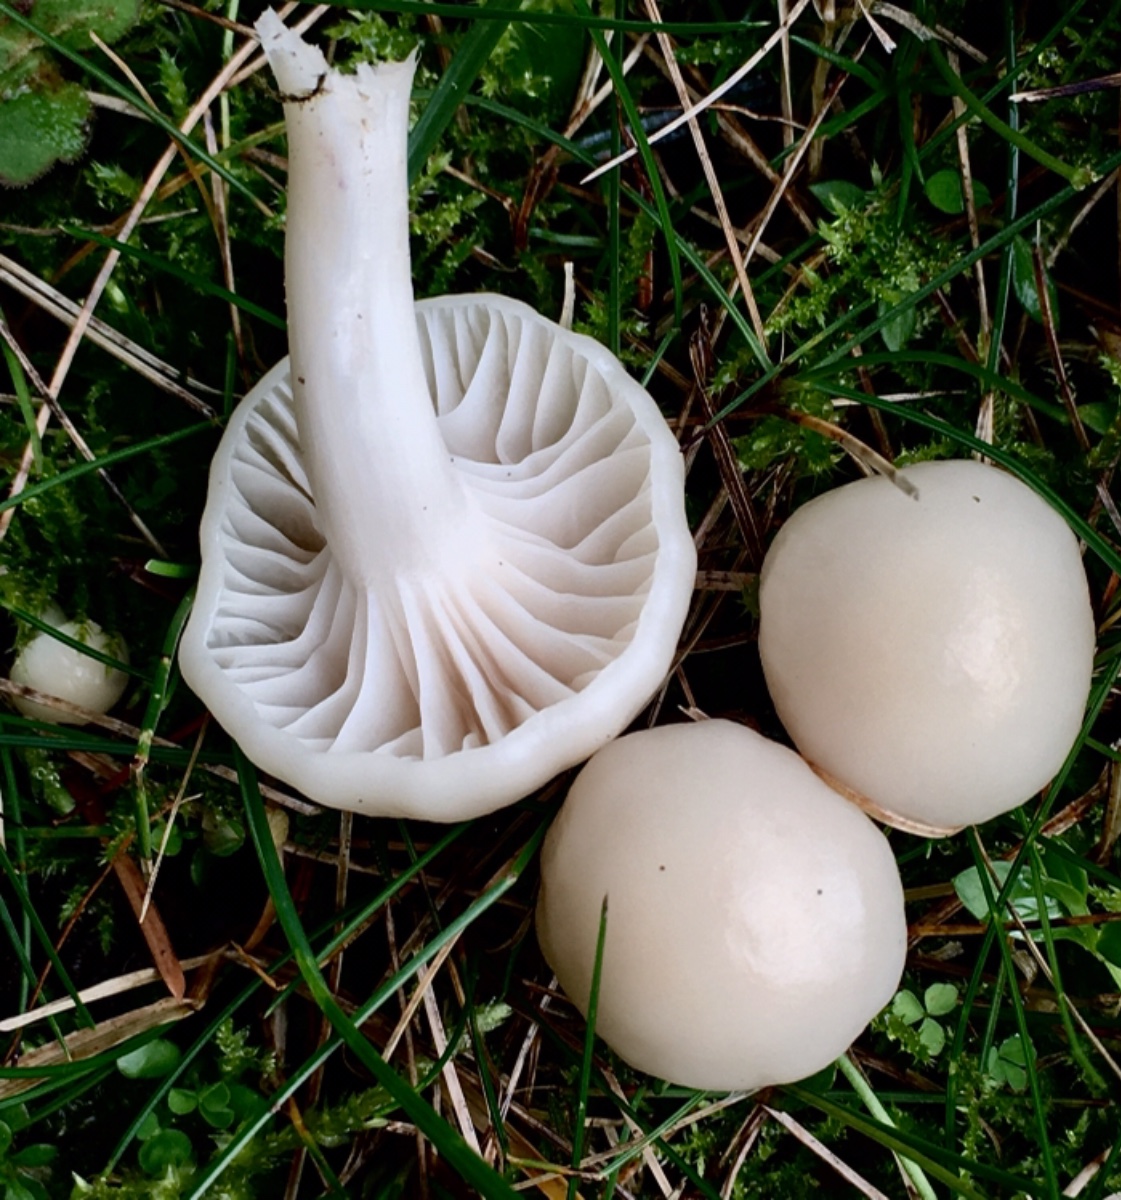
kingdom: Fungi
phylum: Basidiomycota
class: Agaricomycetes
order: Agaricales
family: Hygrophoraceae
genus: Cuphophyllus
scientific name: Cuphophyllus virgineus
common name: snehvid vokshat
